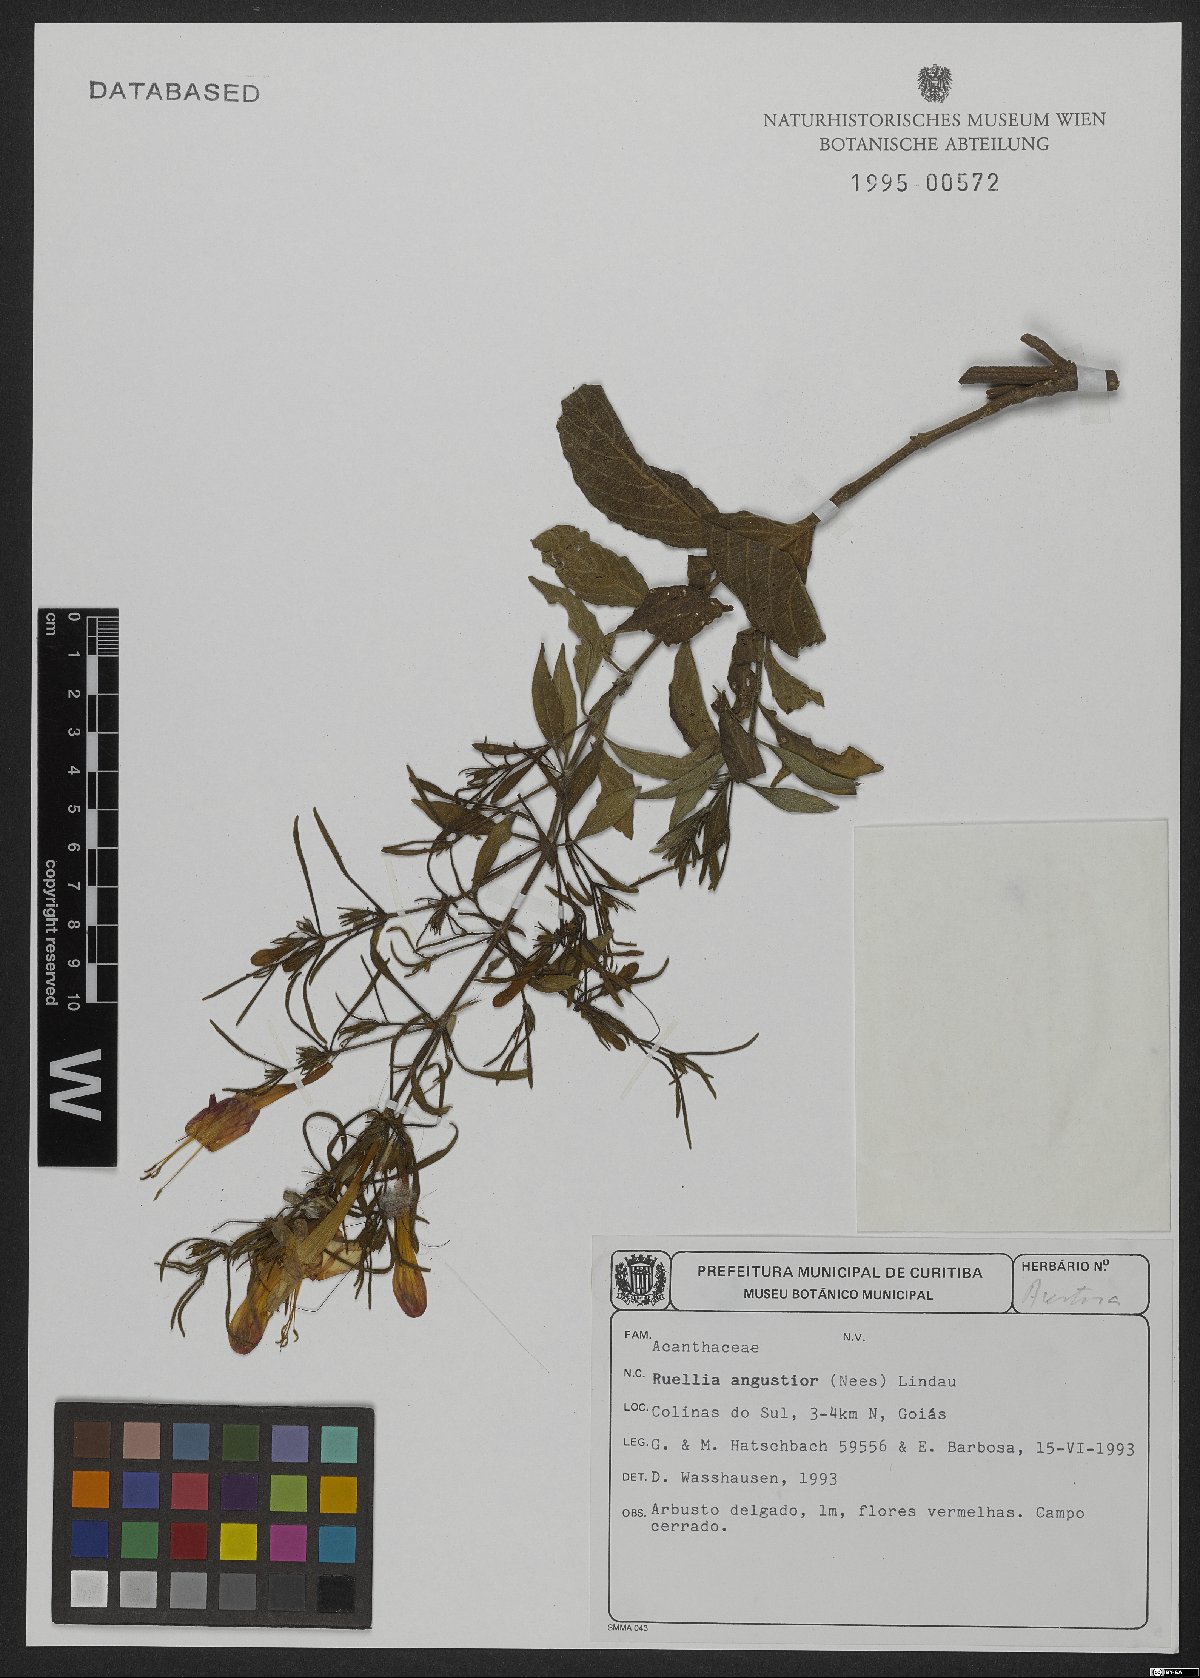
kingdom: Plantae
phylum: Tracheophyta
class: Magnoliopsida
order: Lamiales
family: Acanthaceae
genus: Ruellia
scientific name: Ruellia angustior
